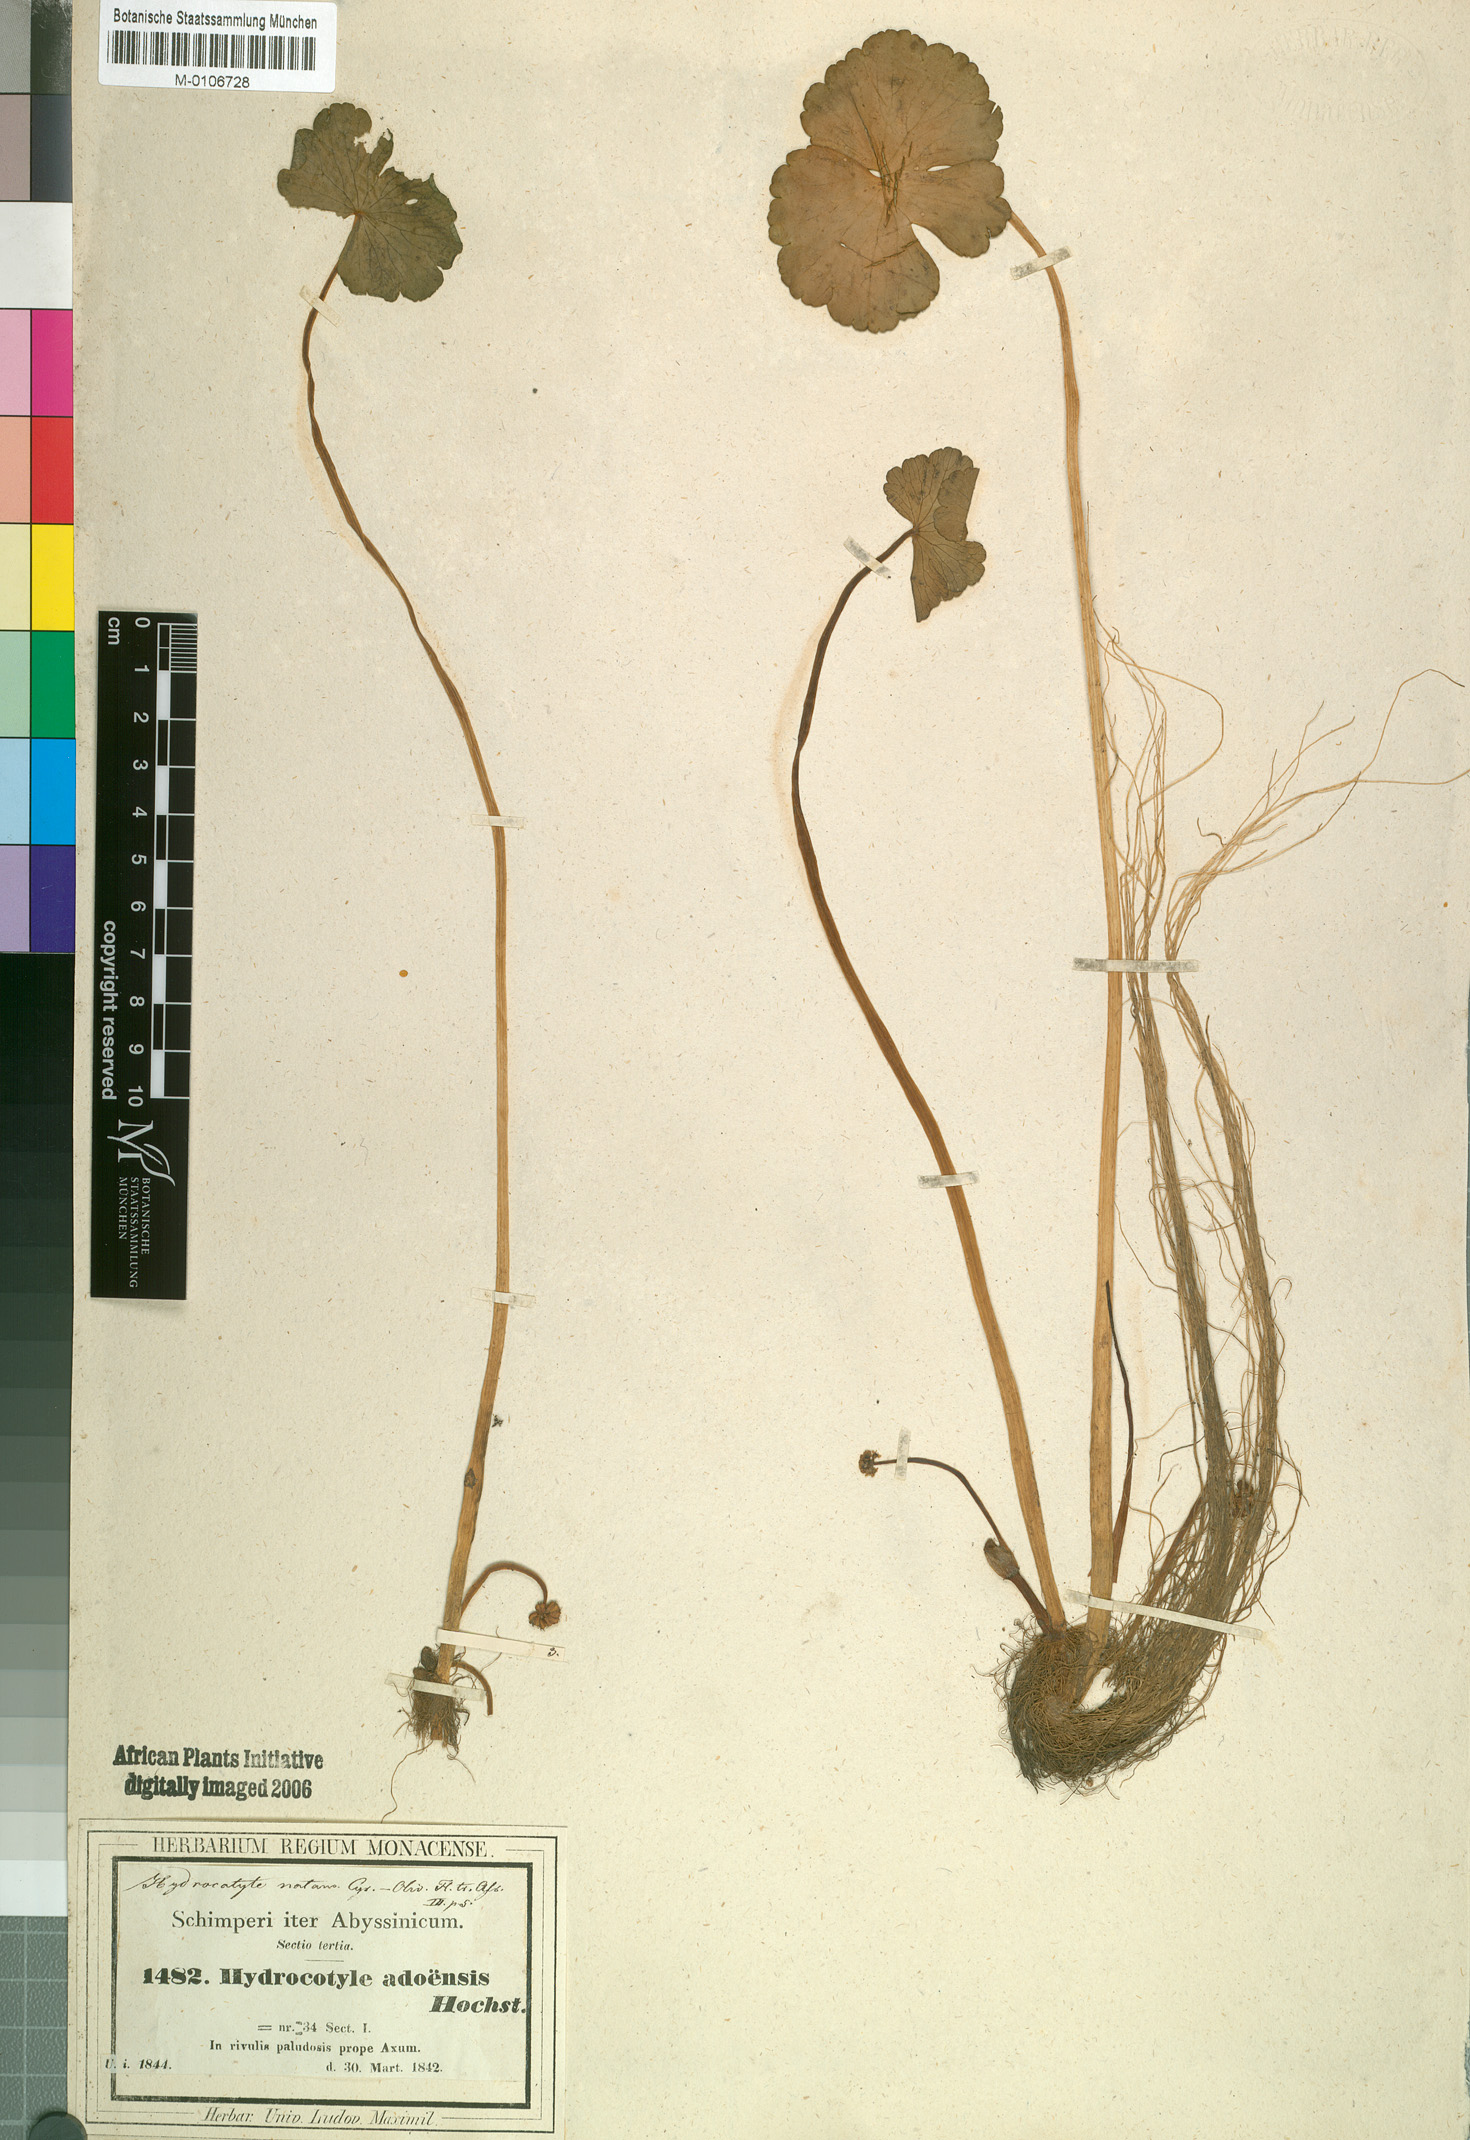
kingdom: Plantae
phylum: Tracheophyta
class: Magnoliopsida
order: Apiales
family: Araliaceae
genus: Hydrocotyle
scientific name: Hydrocotyle ranunculoides
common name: Floating pennywort
